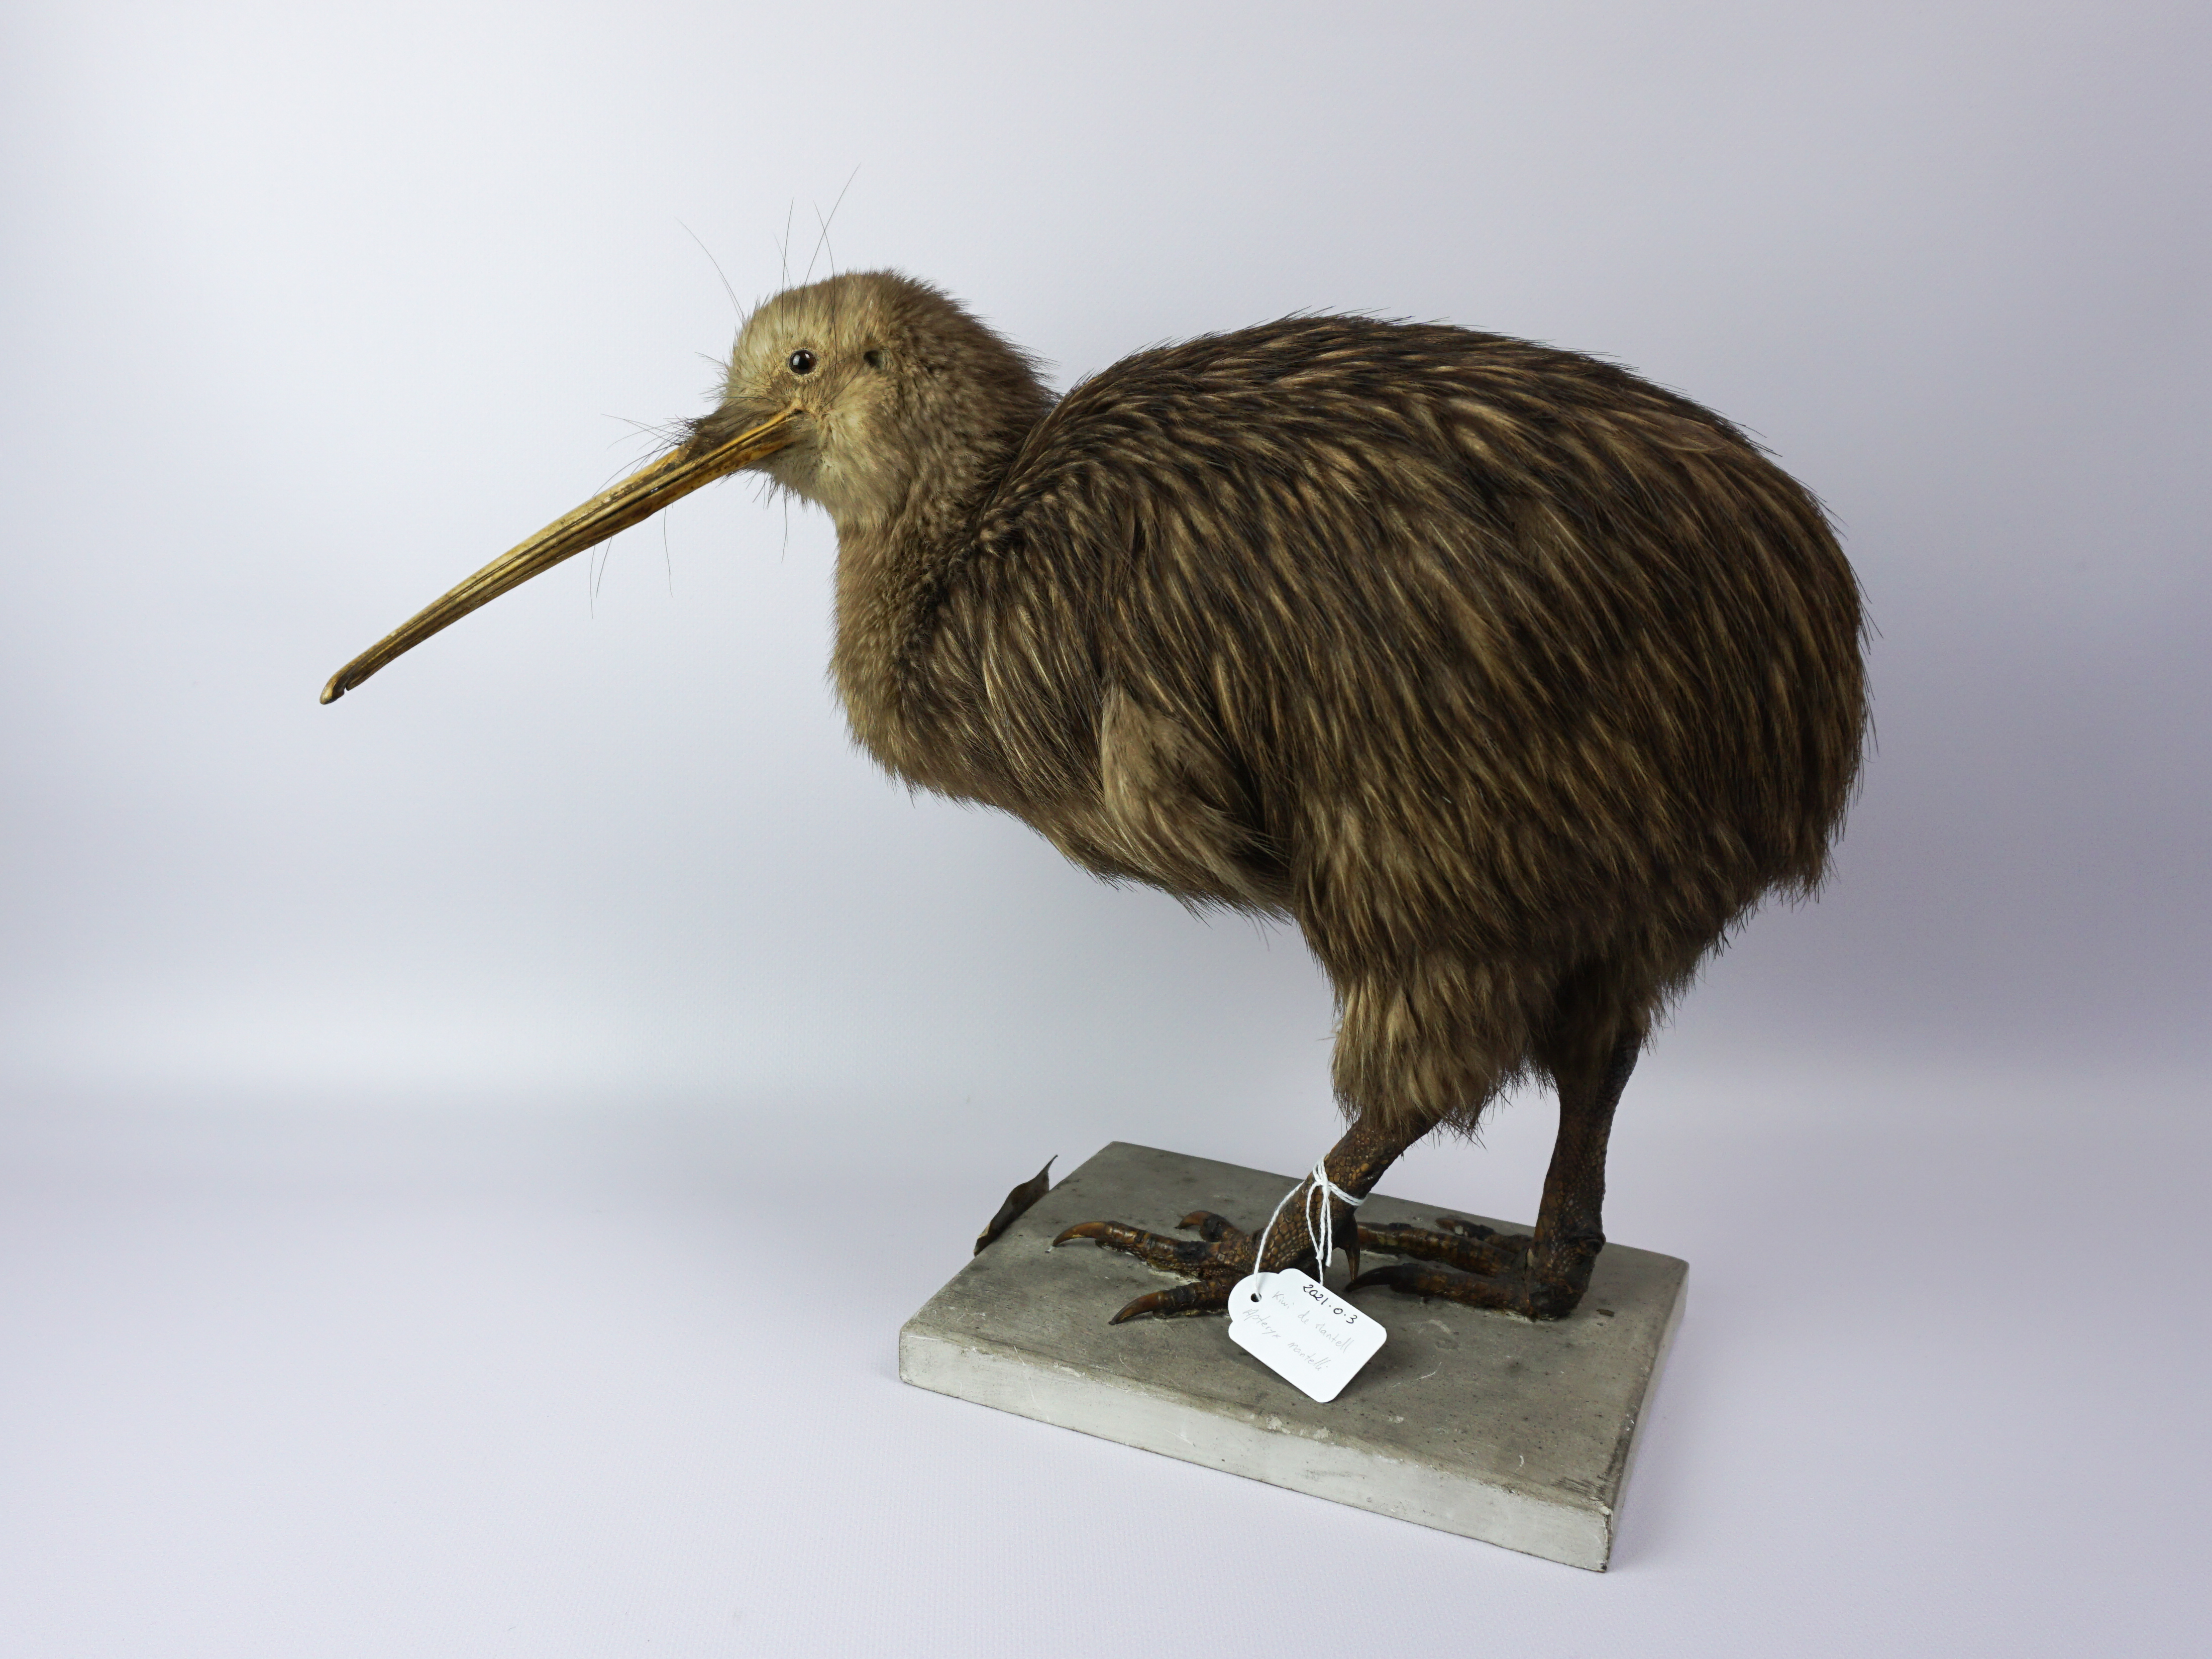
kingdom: Animalia
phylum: Chordata
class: Aves
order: Apterygiformes
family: Apterygidae
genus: Apteryx
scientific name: Apteryx mantelli
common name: North island brown kiwi
